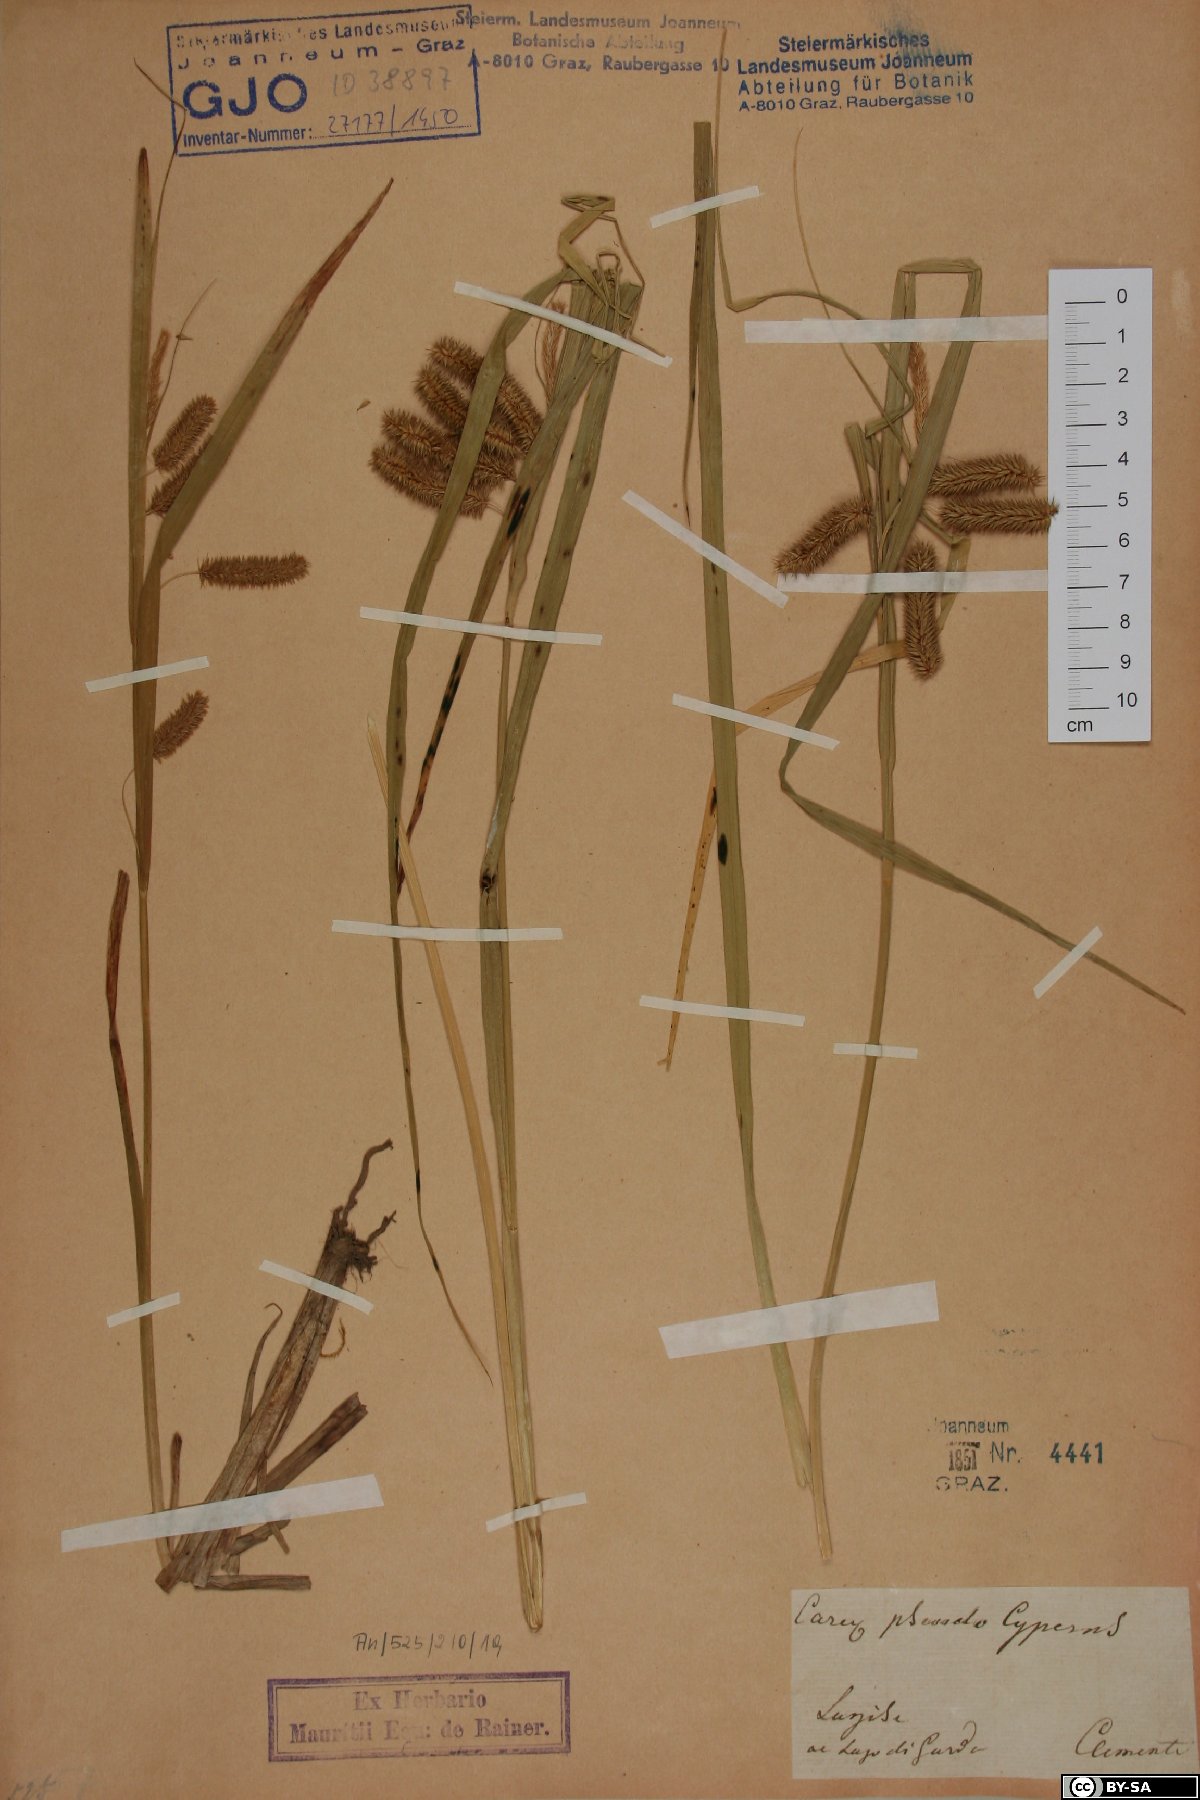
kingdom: Plantae
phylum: Tracheophyta
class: Liliopsida
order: Poales
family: Cyperaceae
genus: Carex
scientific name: Carex pseudocyperus
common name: Cyperus sedge
